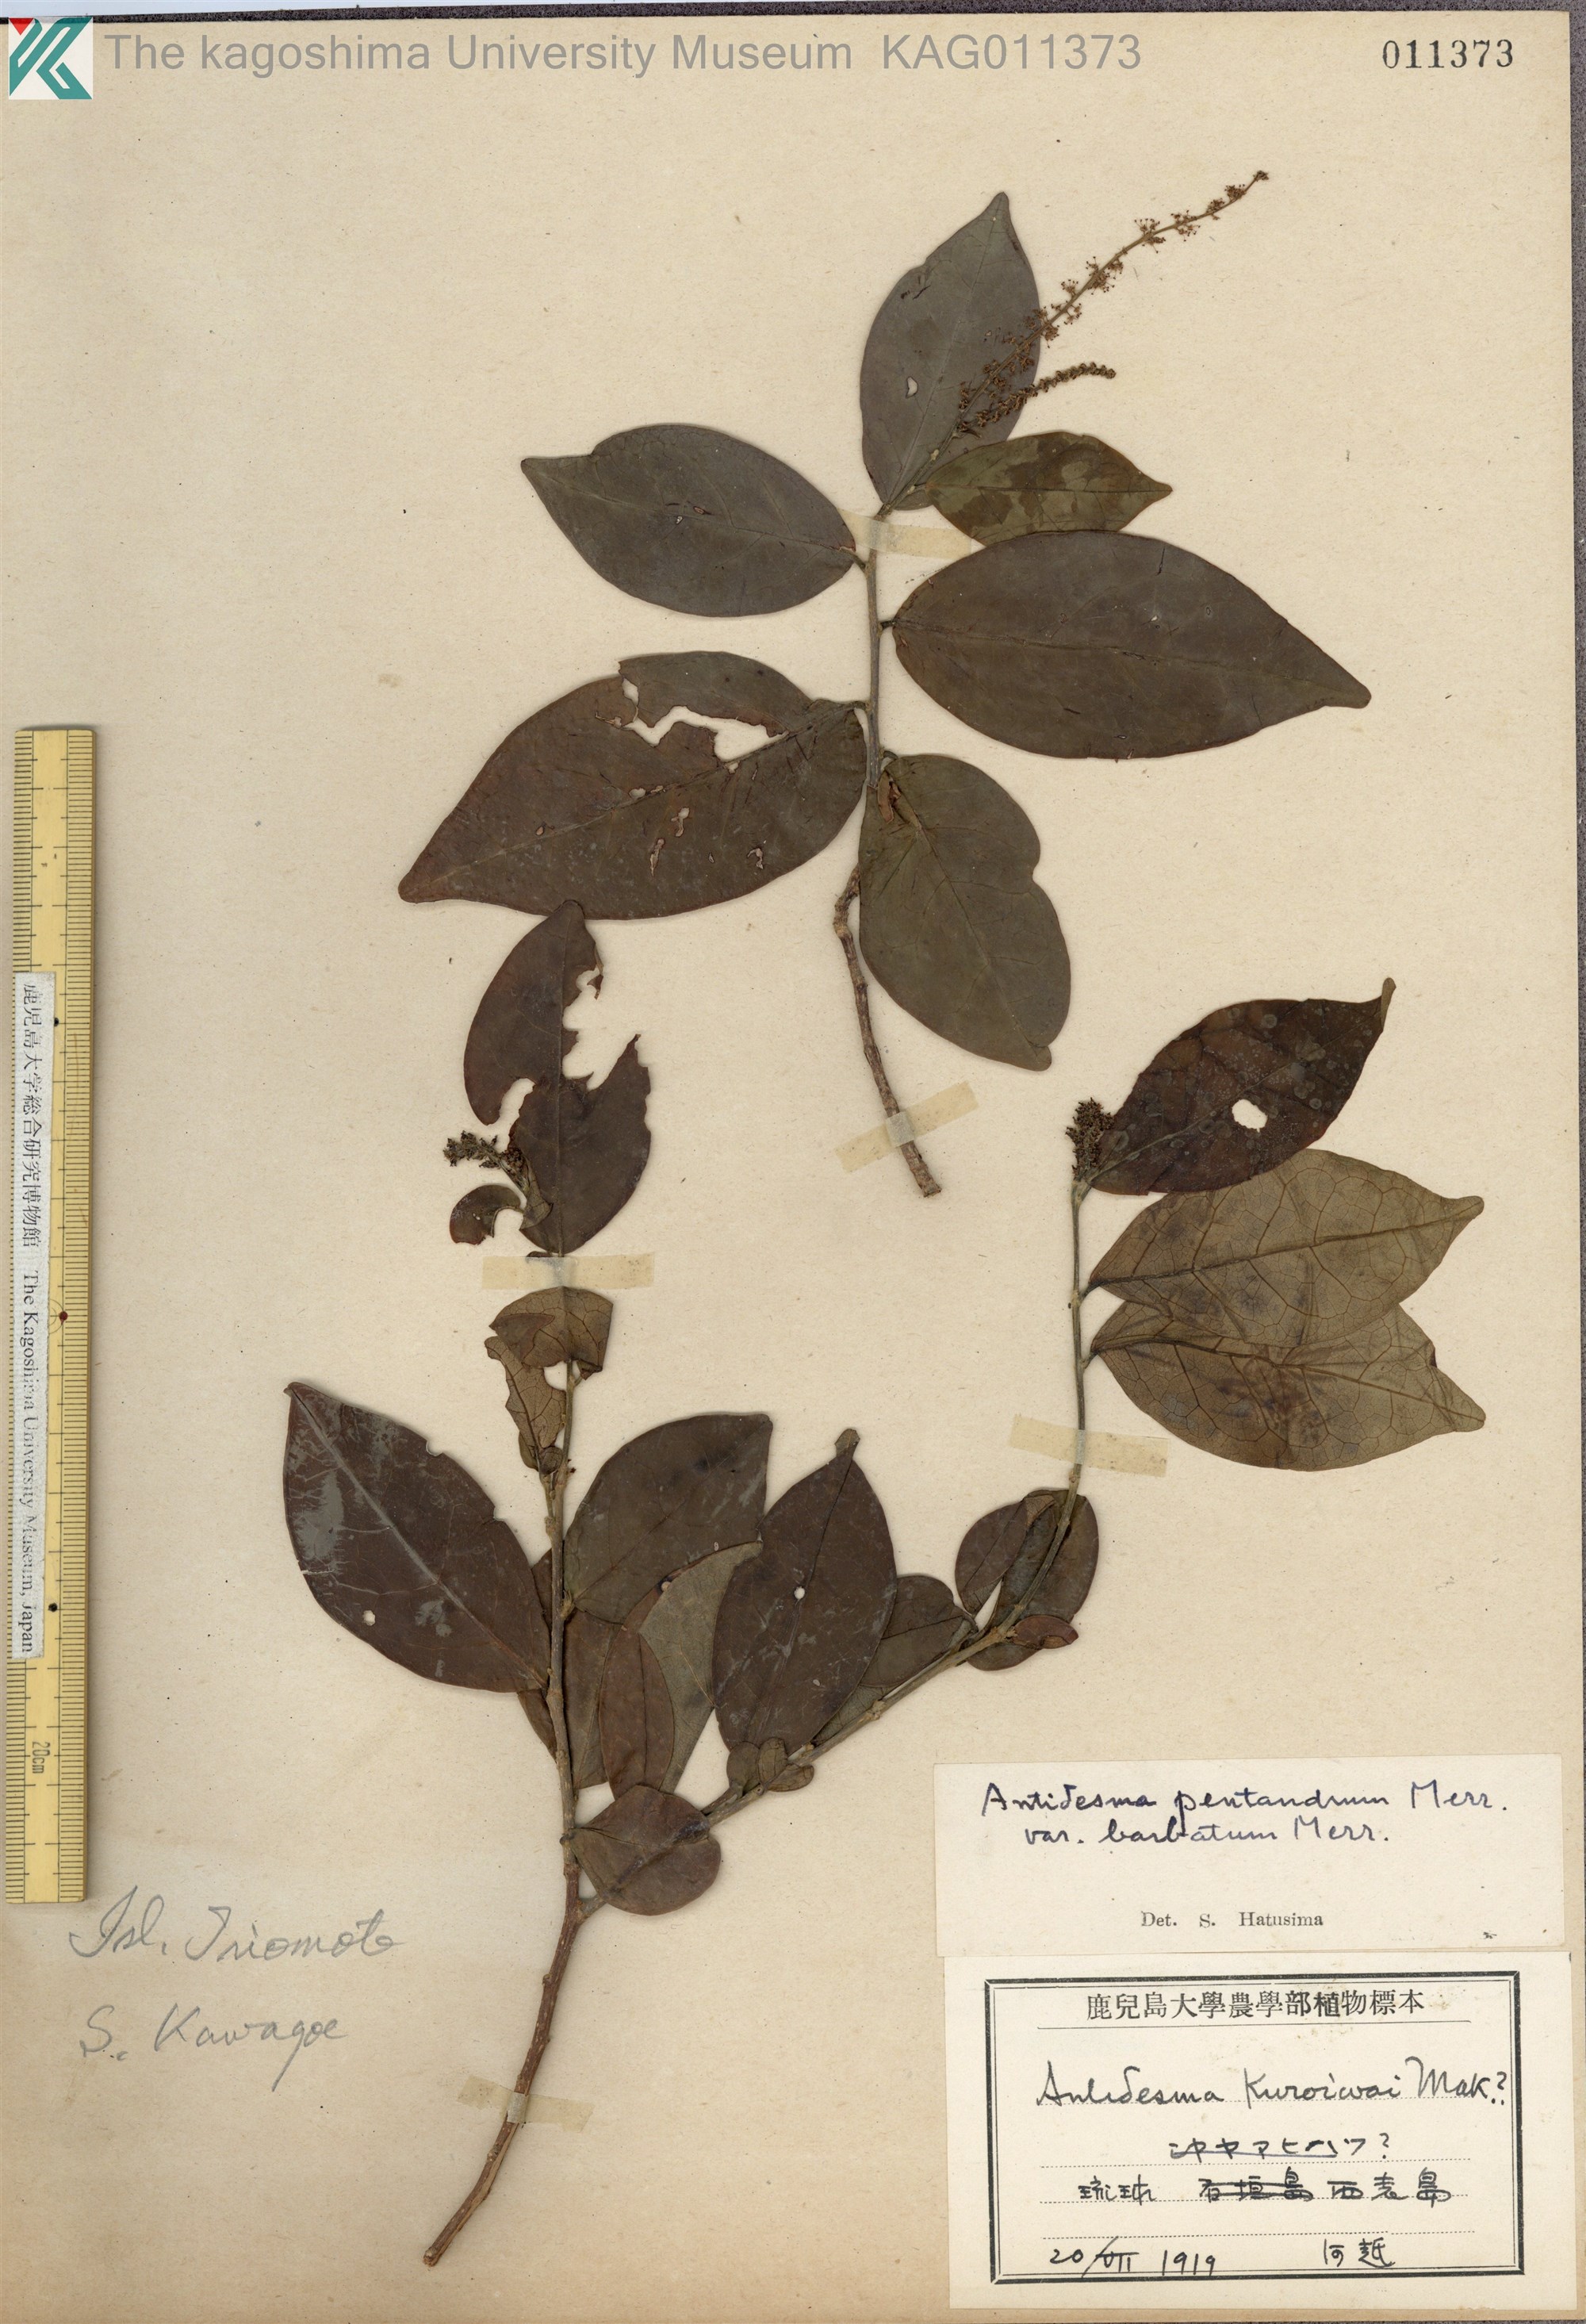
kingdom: Plantae
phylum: Tracheophyta
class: Magnoliopsida
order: Malpighiales
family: Phyllanthaceae
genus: Antidesma
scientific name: Antidesma montanum
